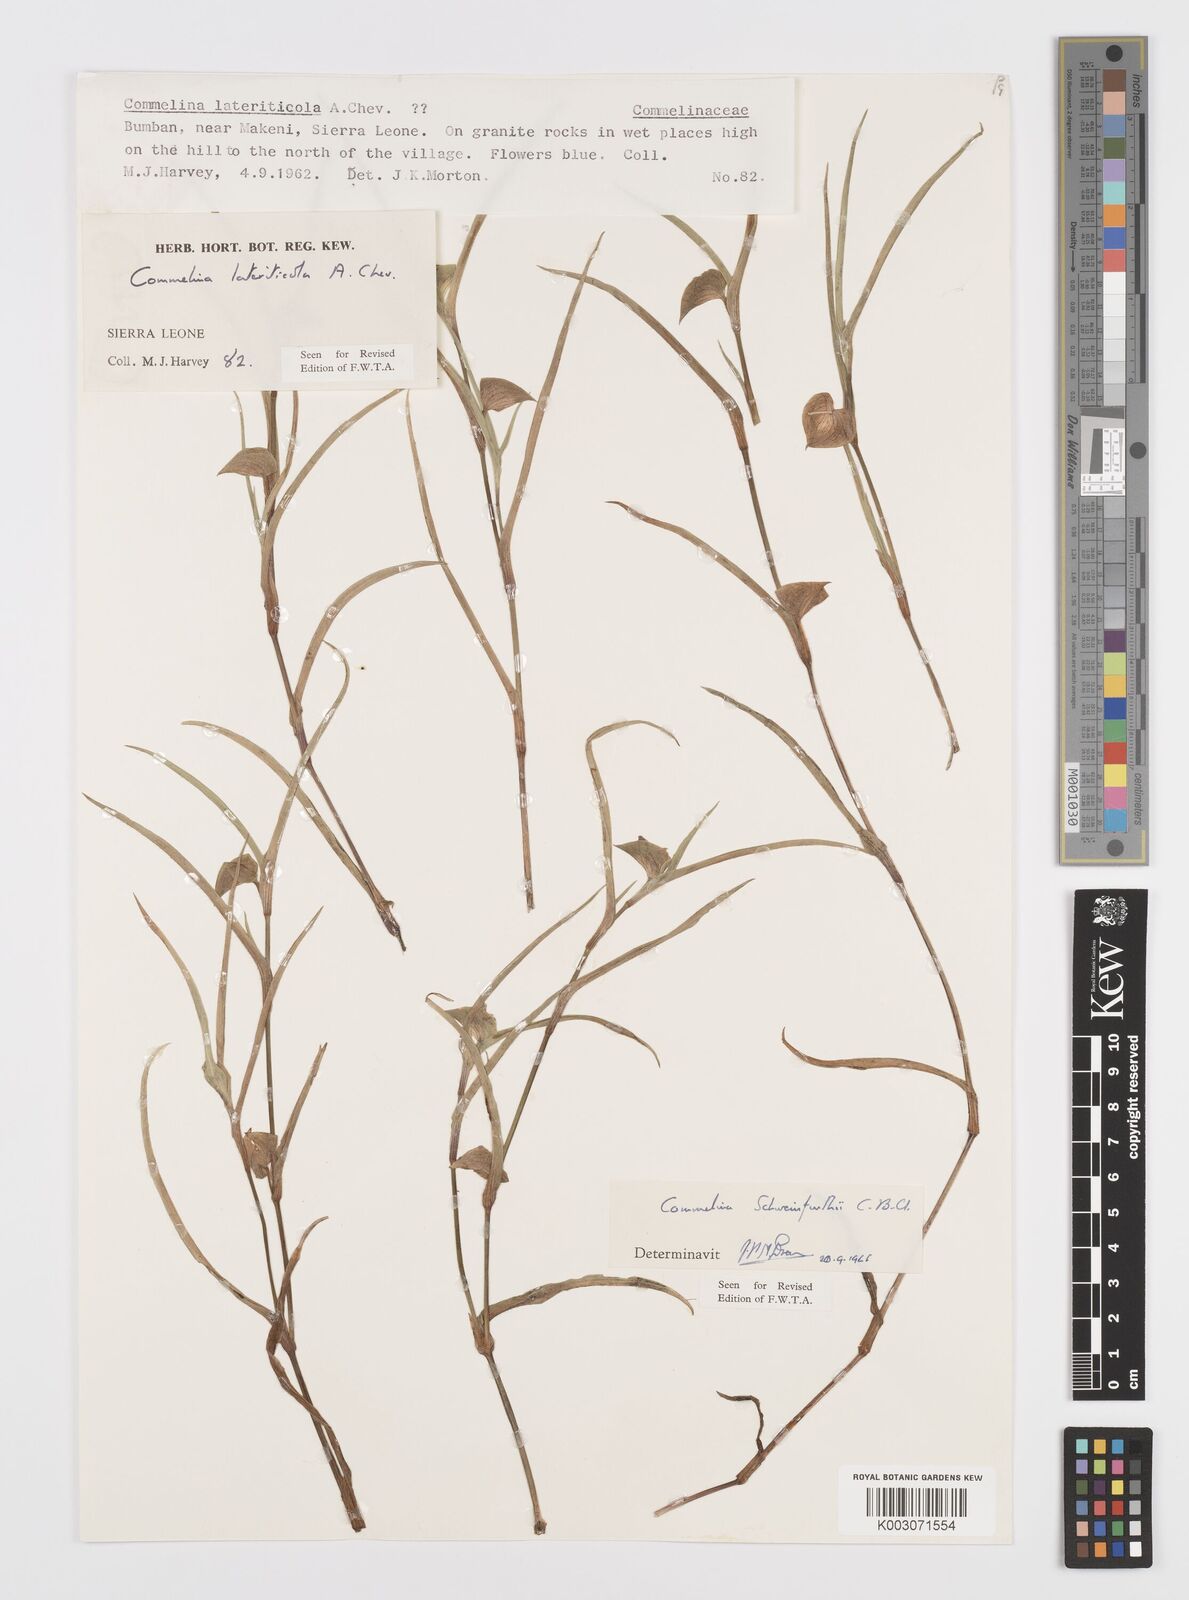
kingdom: Plantae
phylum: Tracheophyta
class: Liliopsida
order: Commelinales
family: Commelinaceae
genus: Commelina
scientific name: Commelina schweinfurthii
